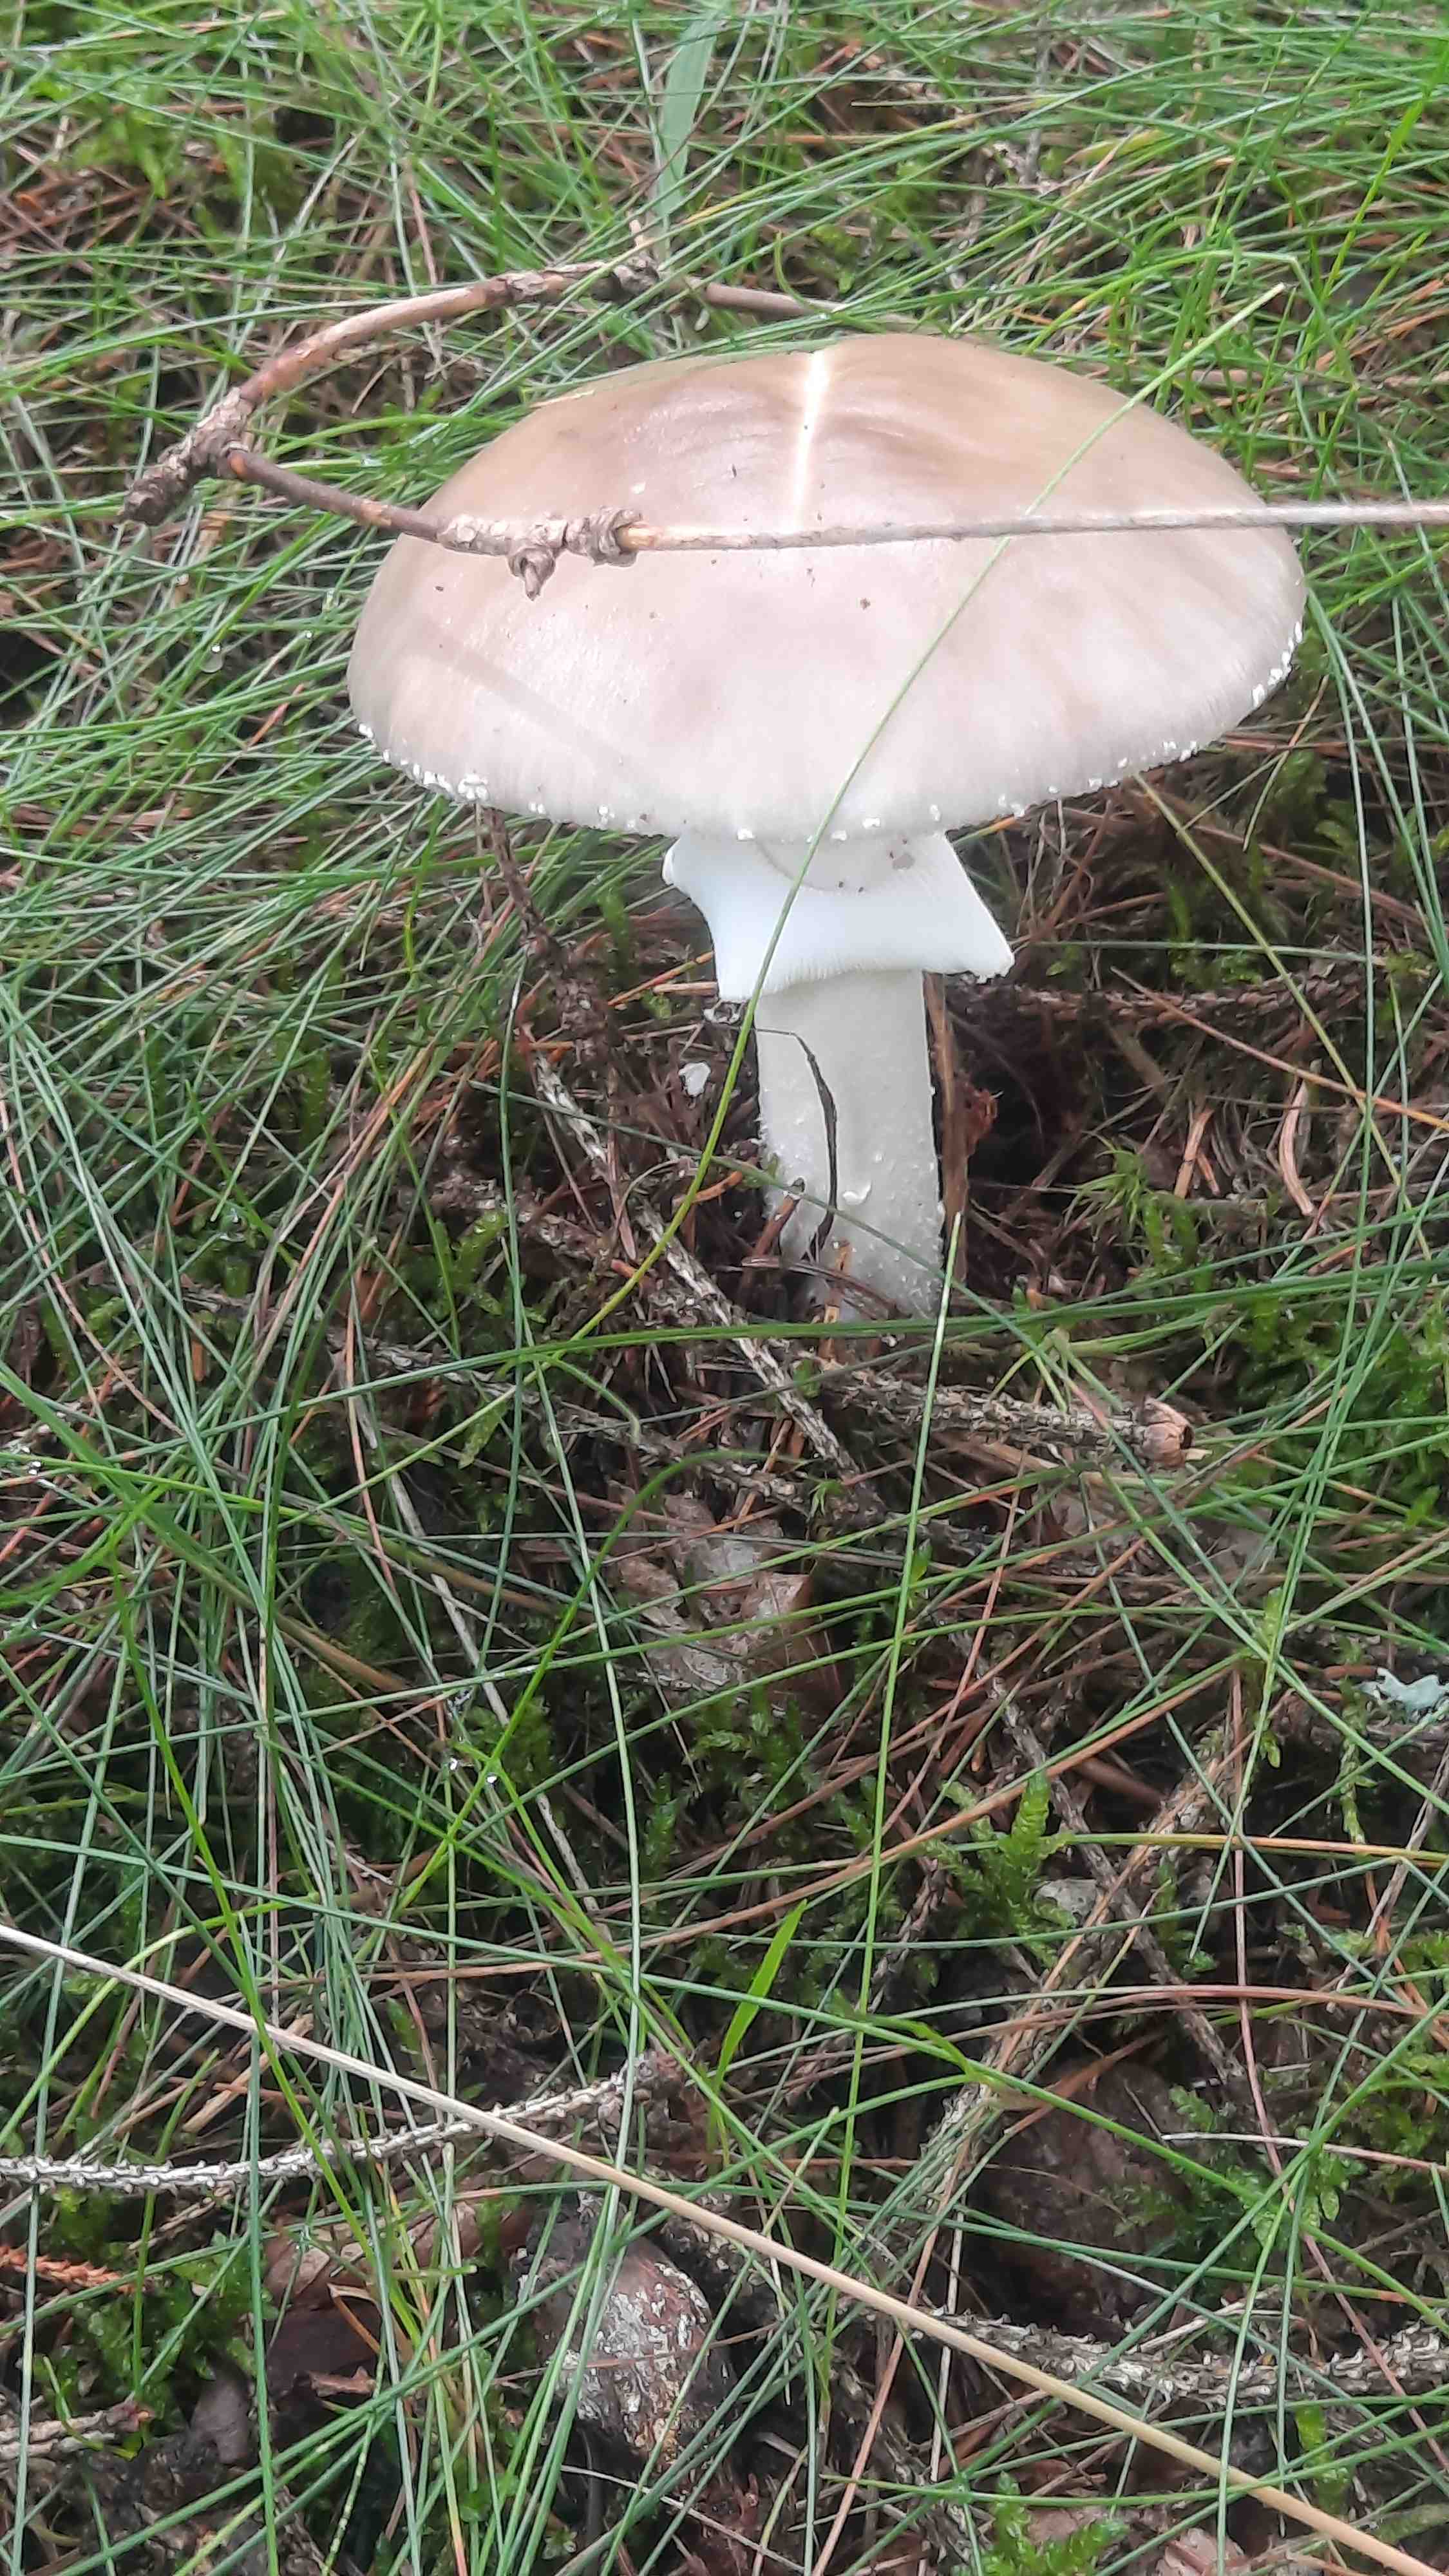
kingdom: Fungi
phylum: Basidiomycota
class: Agaricomycetes
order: Agaricales
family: Amanitaceae
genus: Amanita
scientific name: Amanita porphyria
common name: porfyr-fluesvamp
